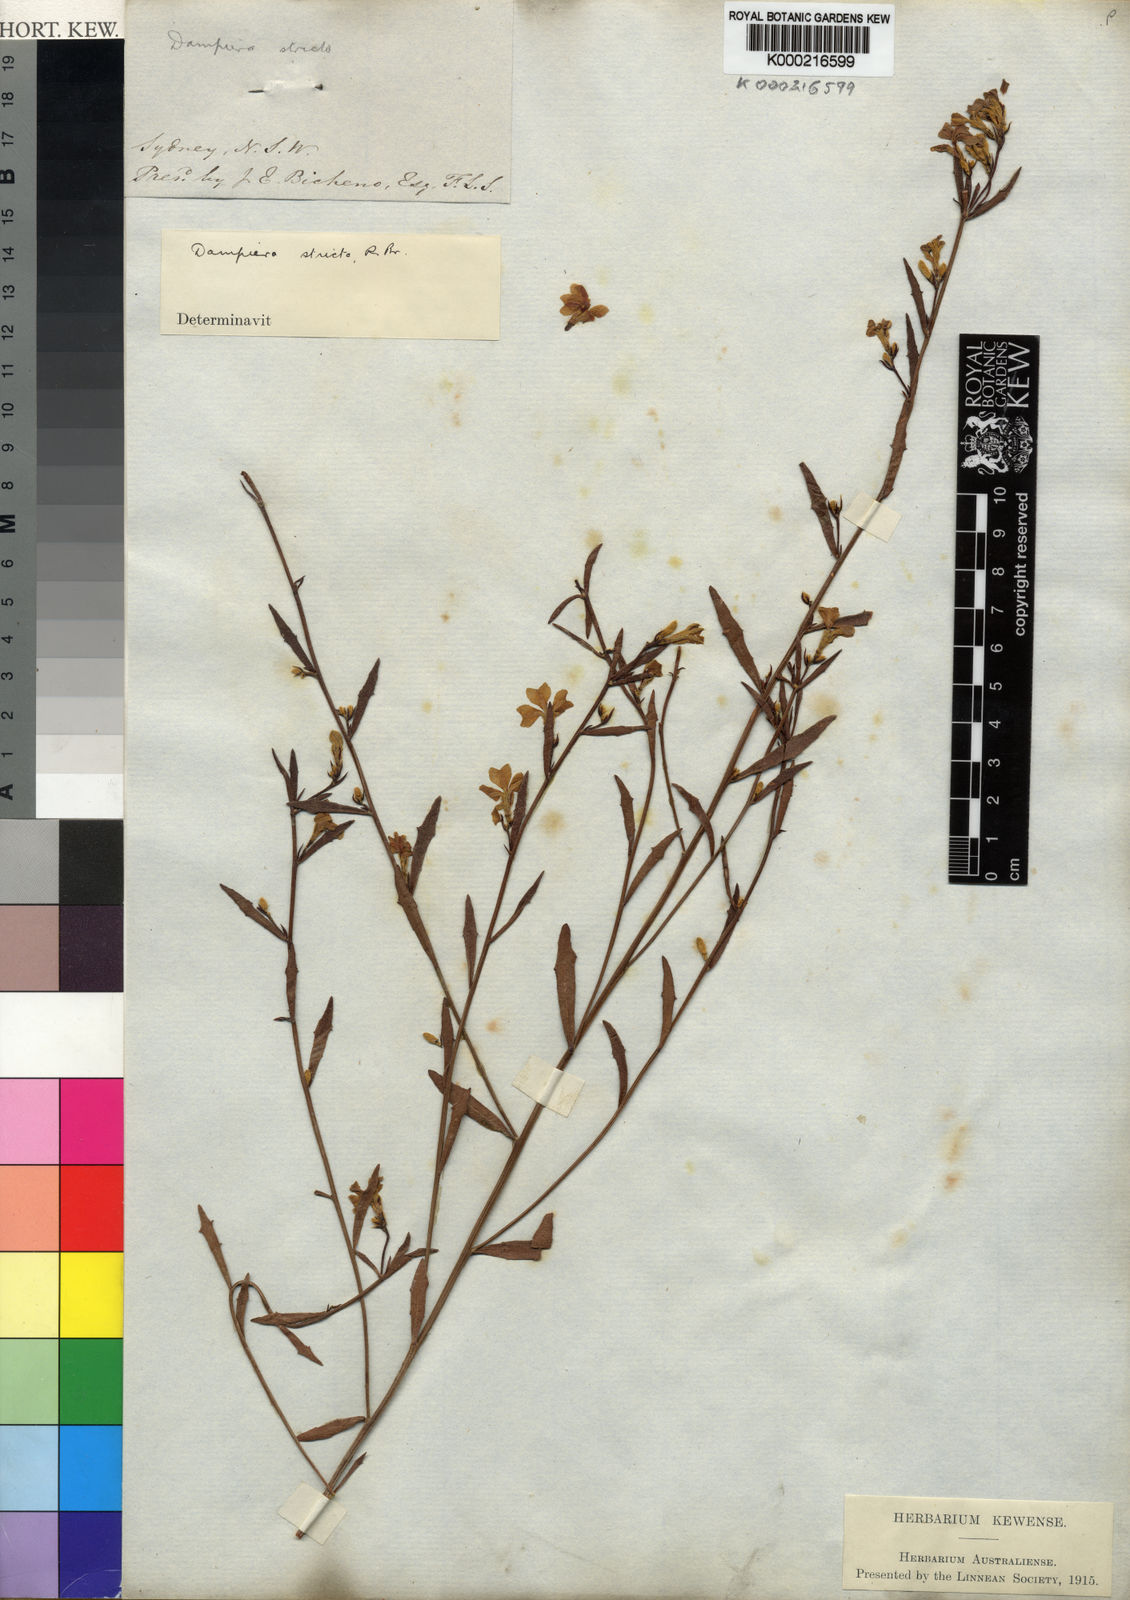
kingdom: Plantae
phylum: Tracheophyta
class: Magnoliopsida
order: Asterales
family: Goodeniaceae
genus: Dampiera
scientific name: Dampiera stricta
